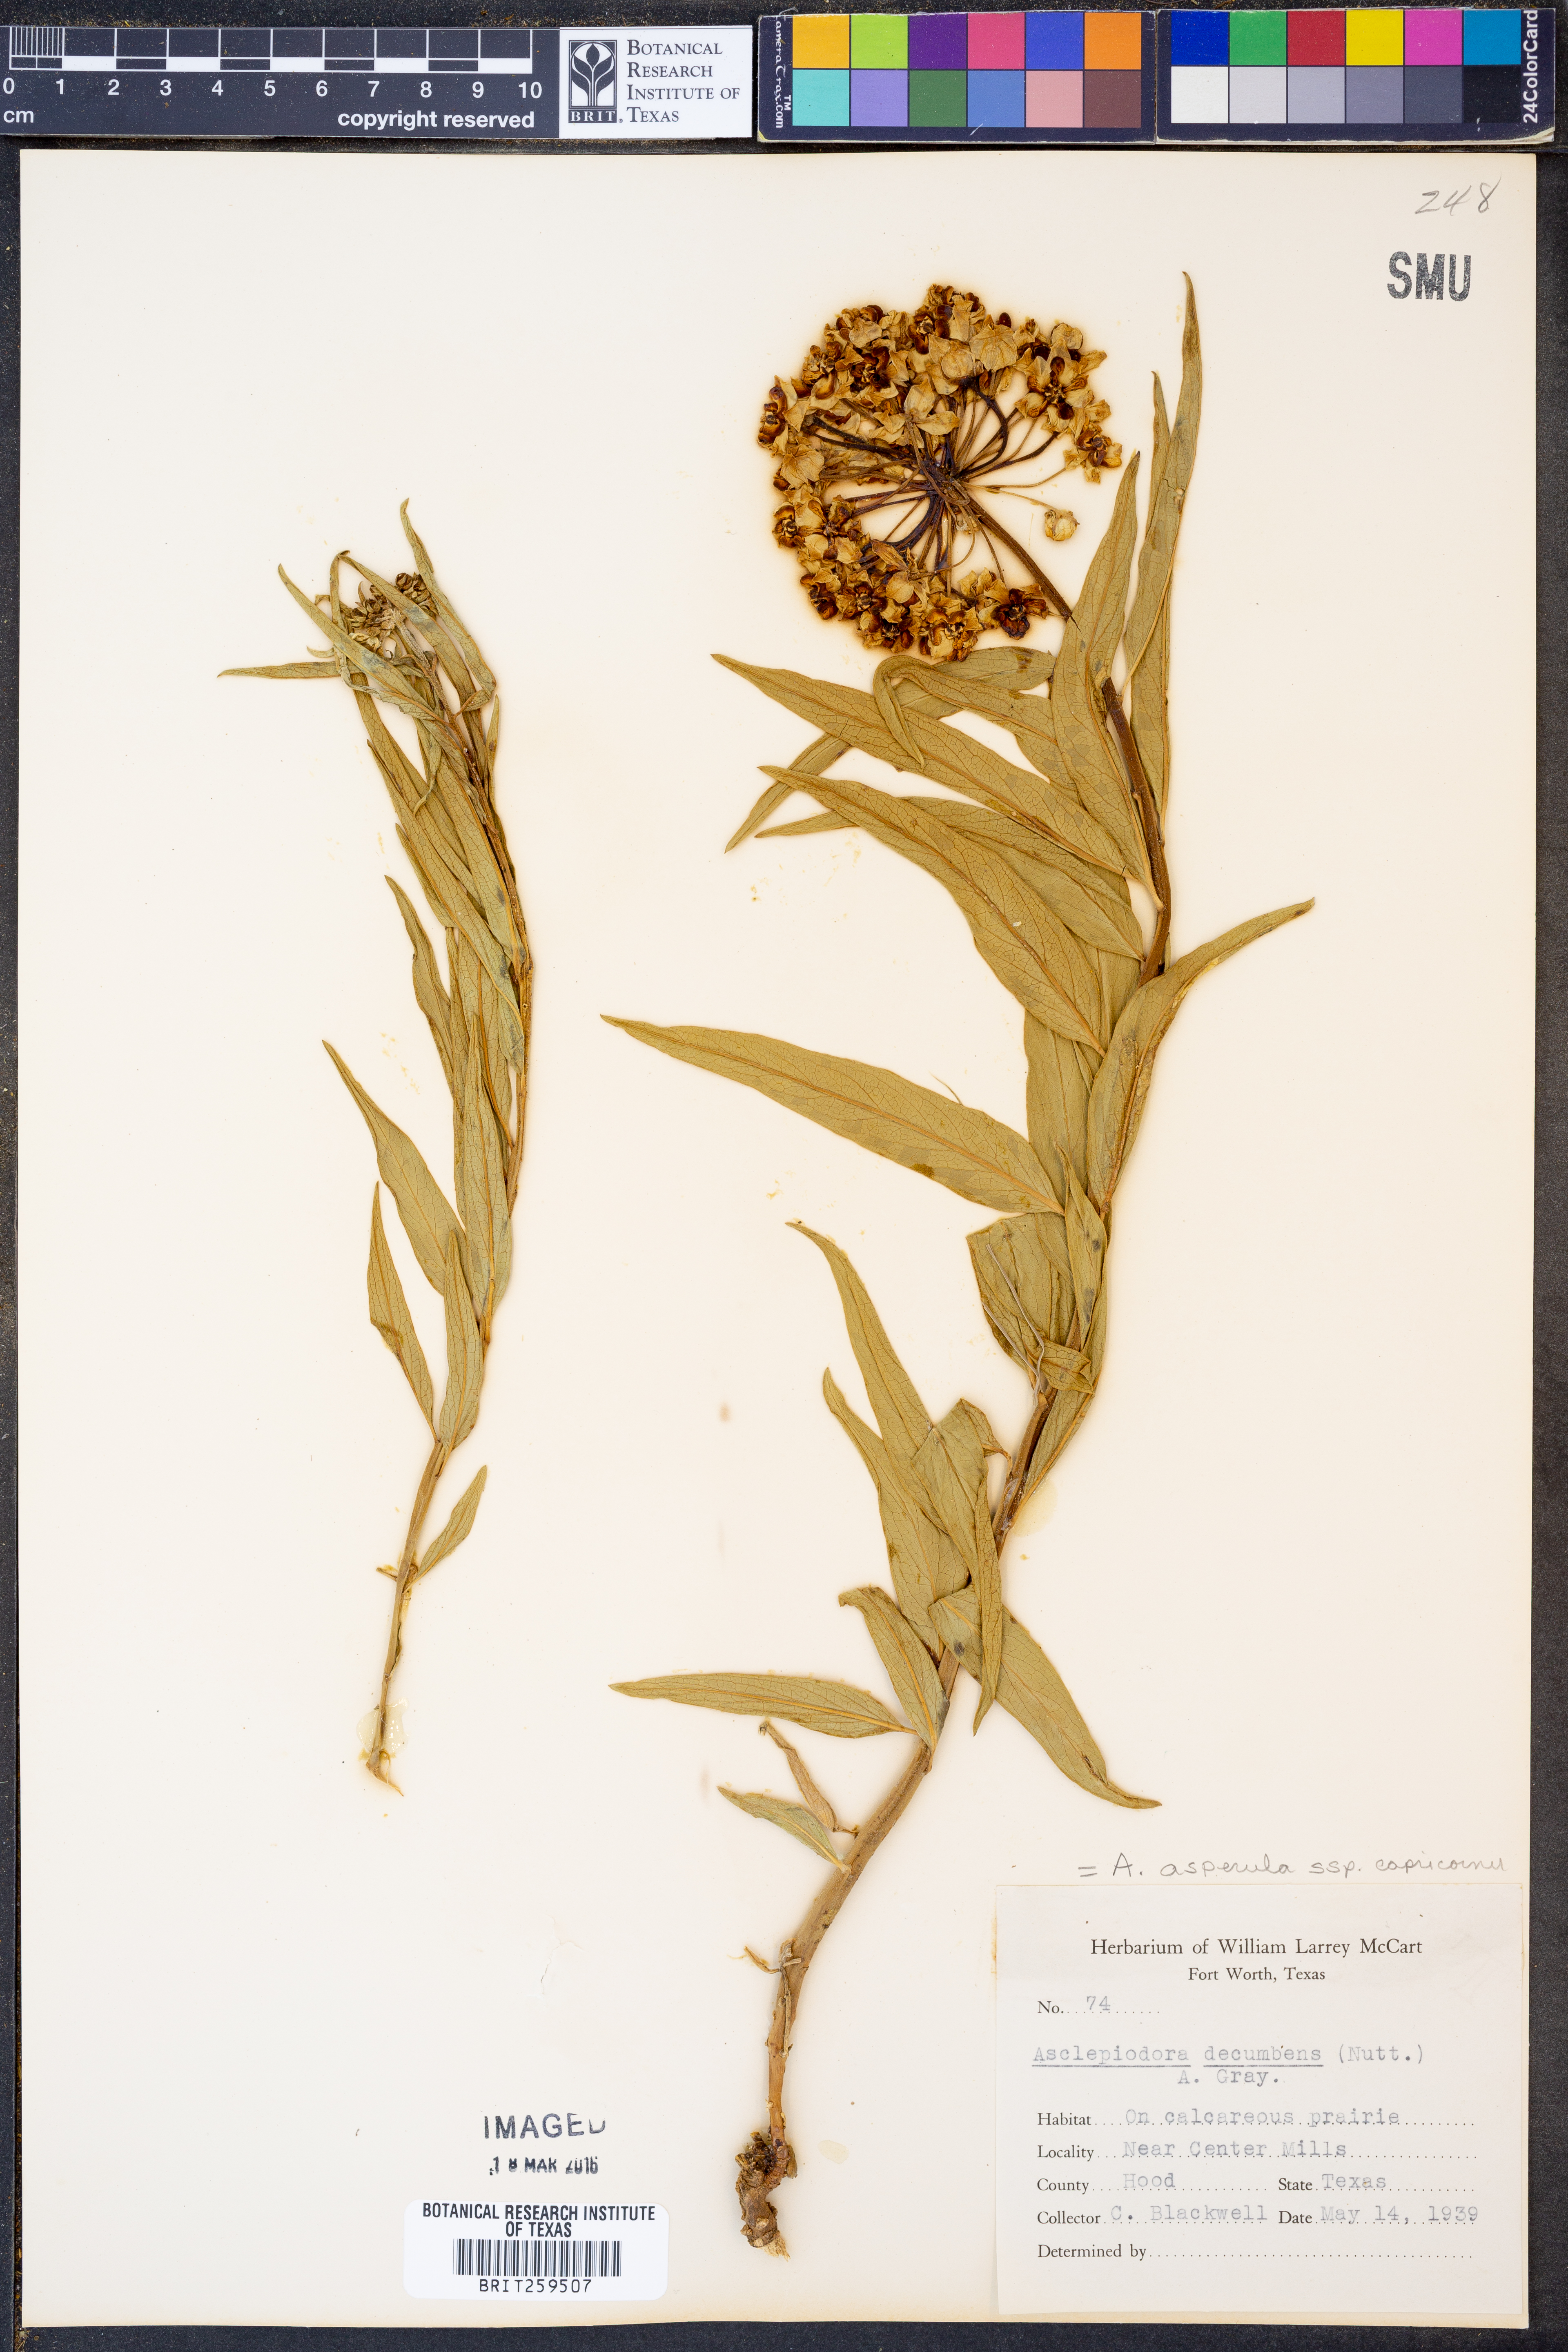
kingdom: Plantae
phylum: Tracheophyta
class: Magnoliopsida
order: Gentianales
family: Apocynaceae
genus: Asclepias
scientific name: Asclepias asperula
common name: Antelope horns
